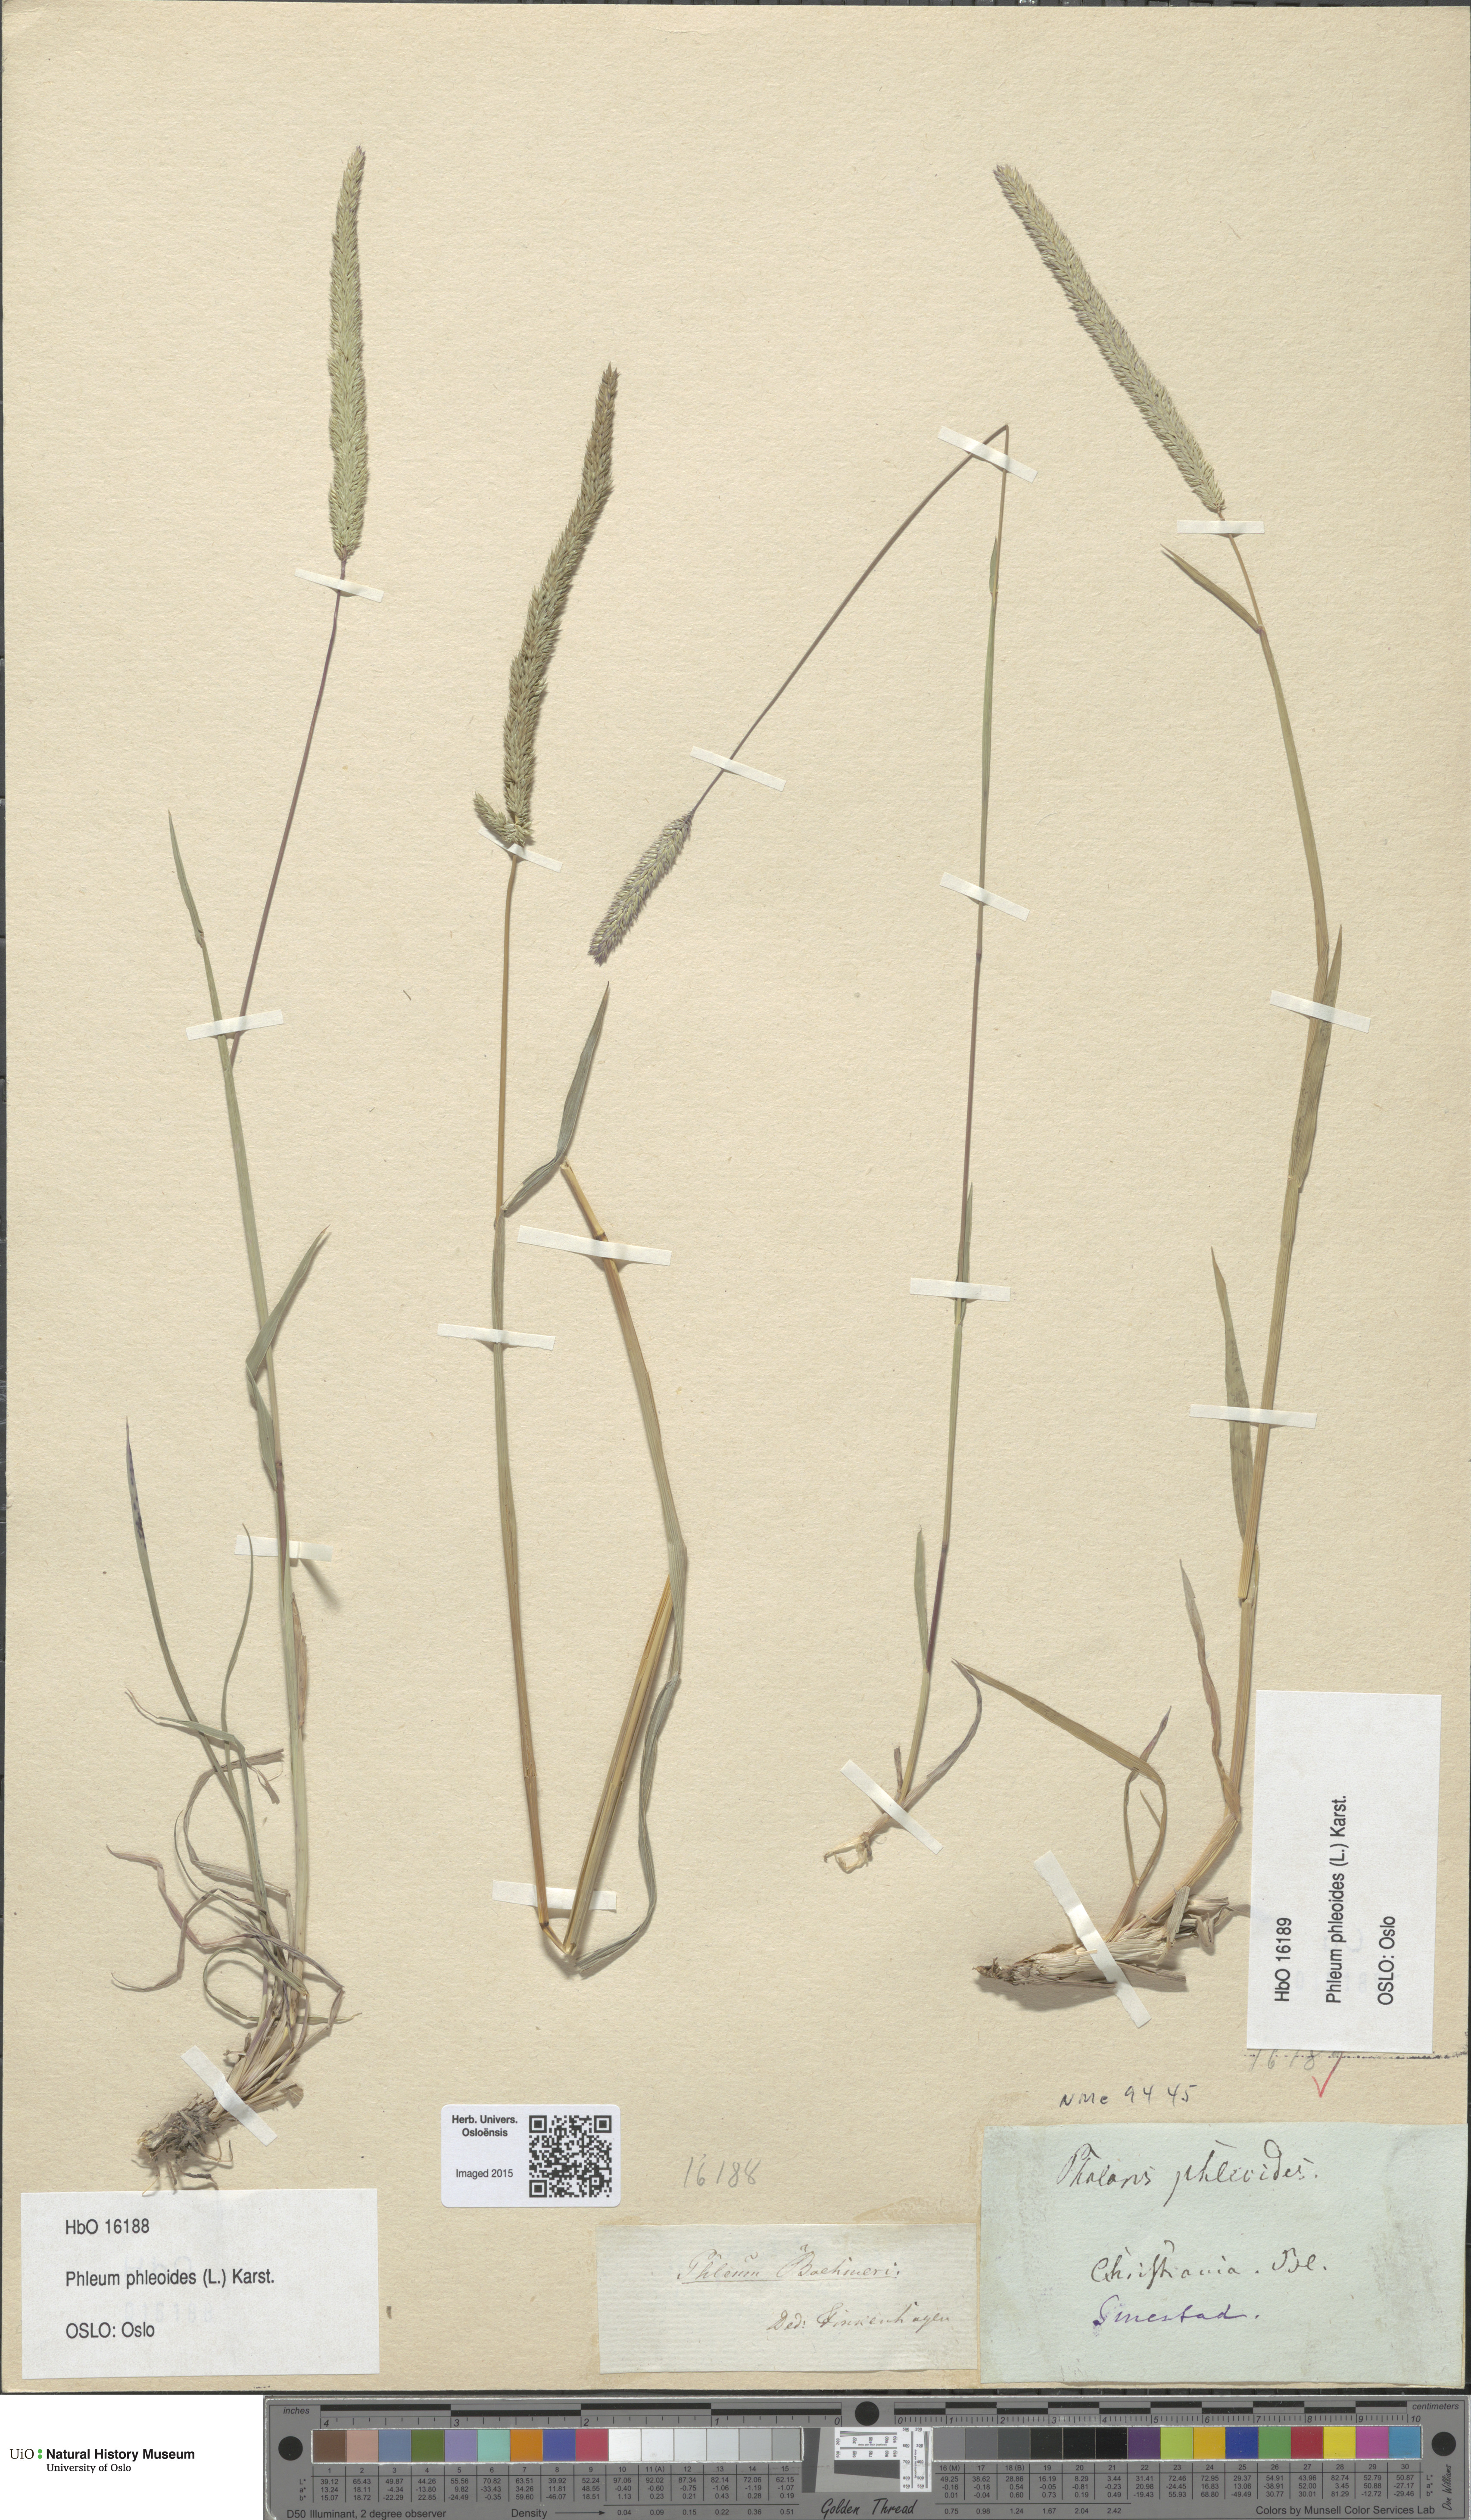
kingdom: Plantae
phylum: Tracheophyta
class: Liliopsida
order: Poales
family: Poaceae
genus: Phleum
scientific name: Phleum phleoides
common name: Purple-stem cat's-tail
